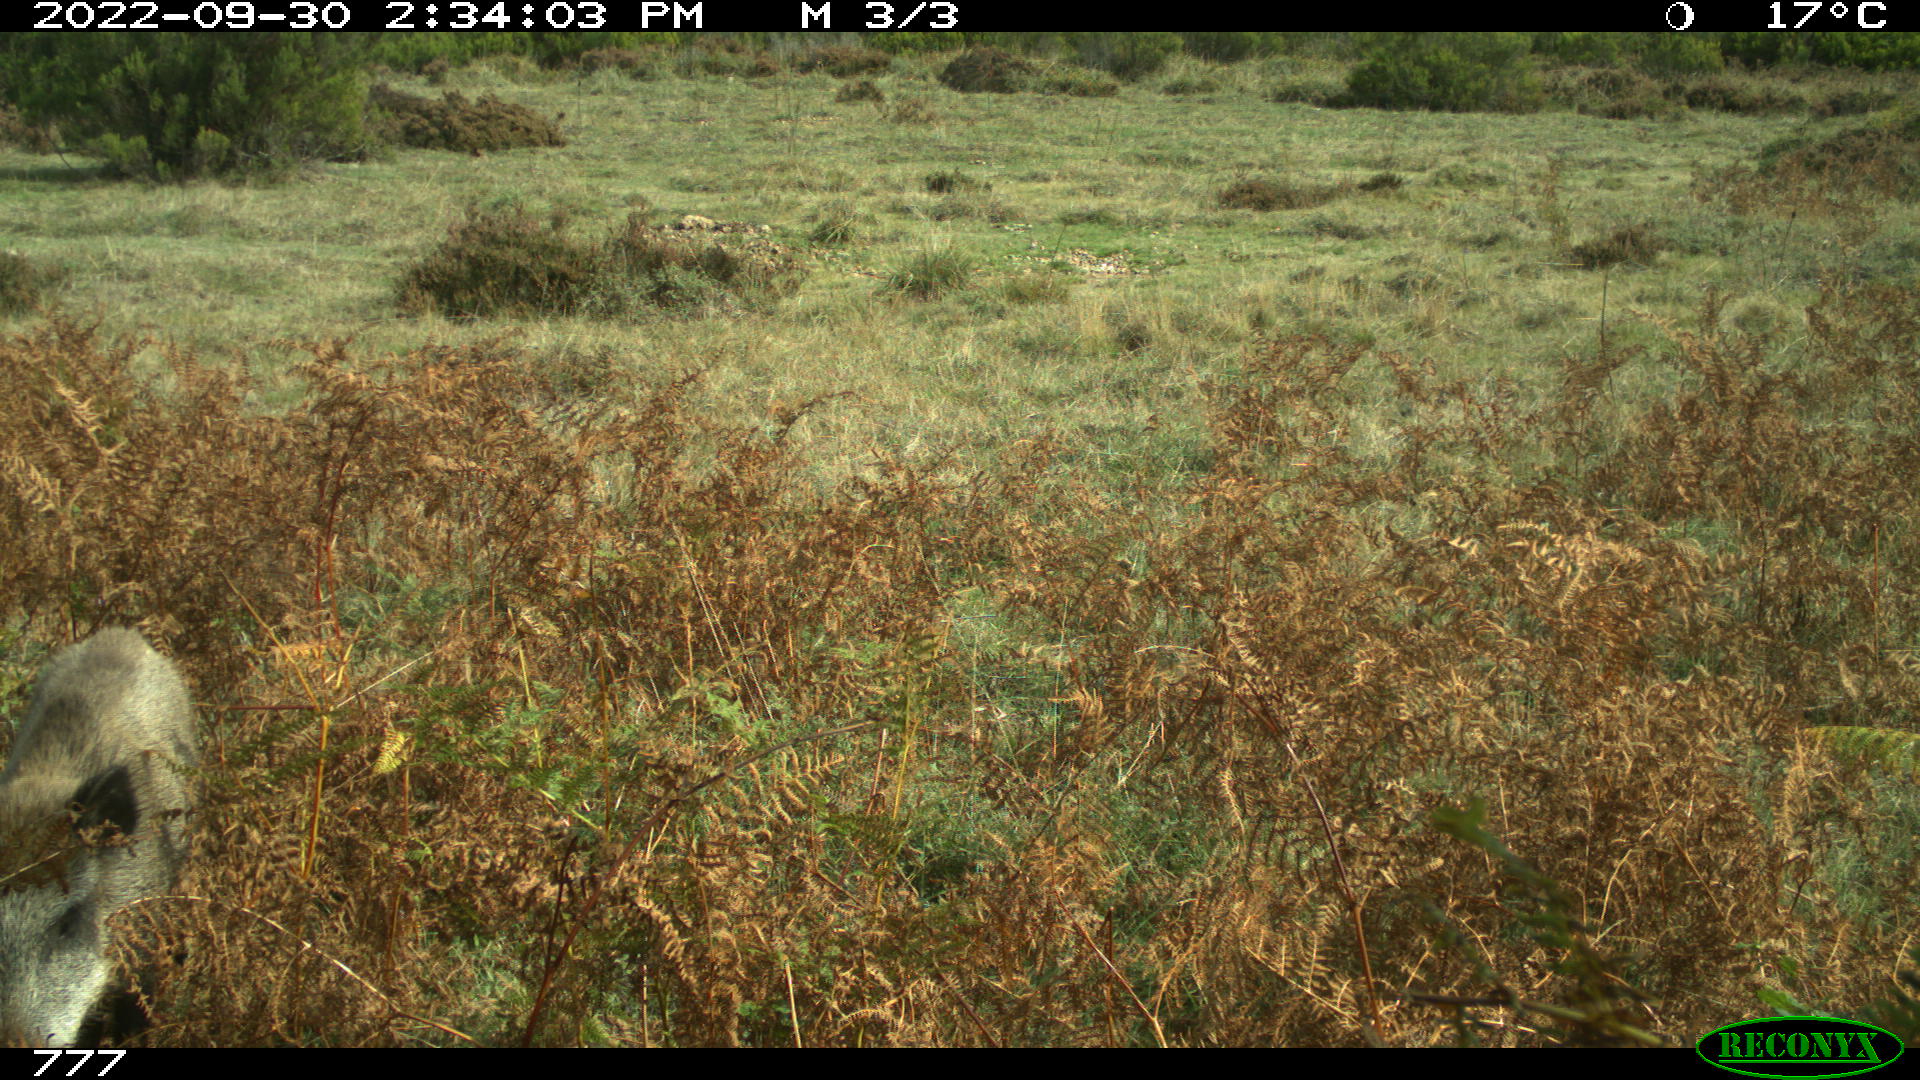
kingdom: Animalia
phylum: Chordata
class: Mammalia
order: Artiodactyla
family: Suidae
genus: Sus
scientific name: Sus scrofa
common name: Wild boar
